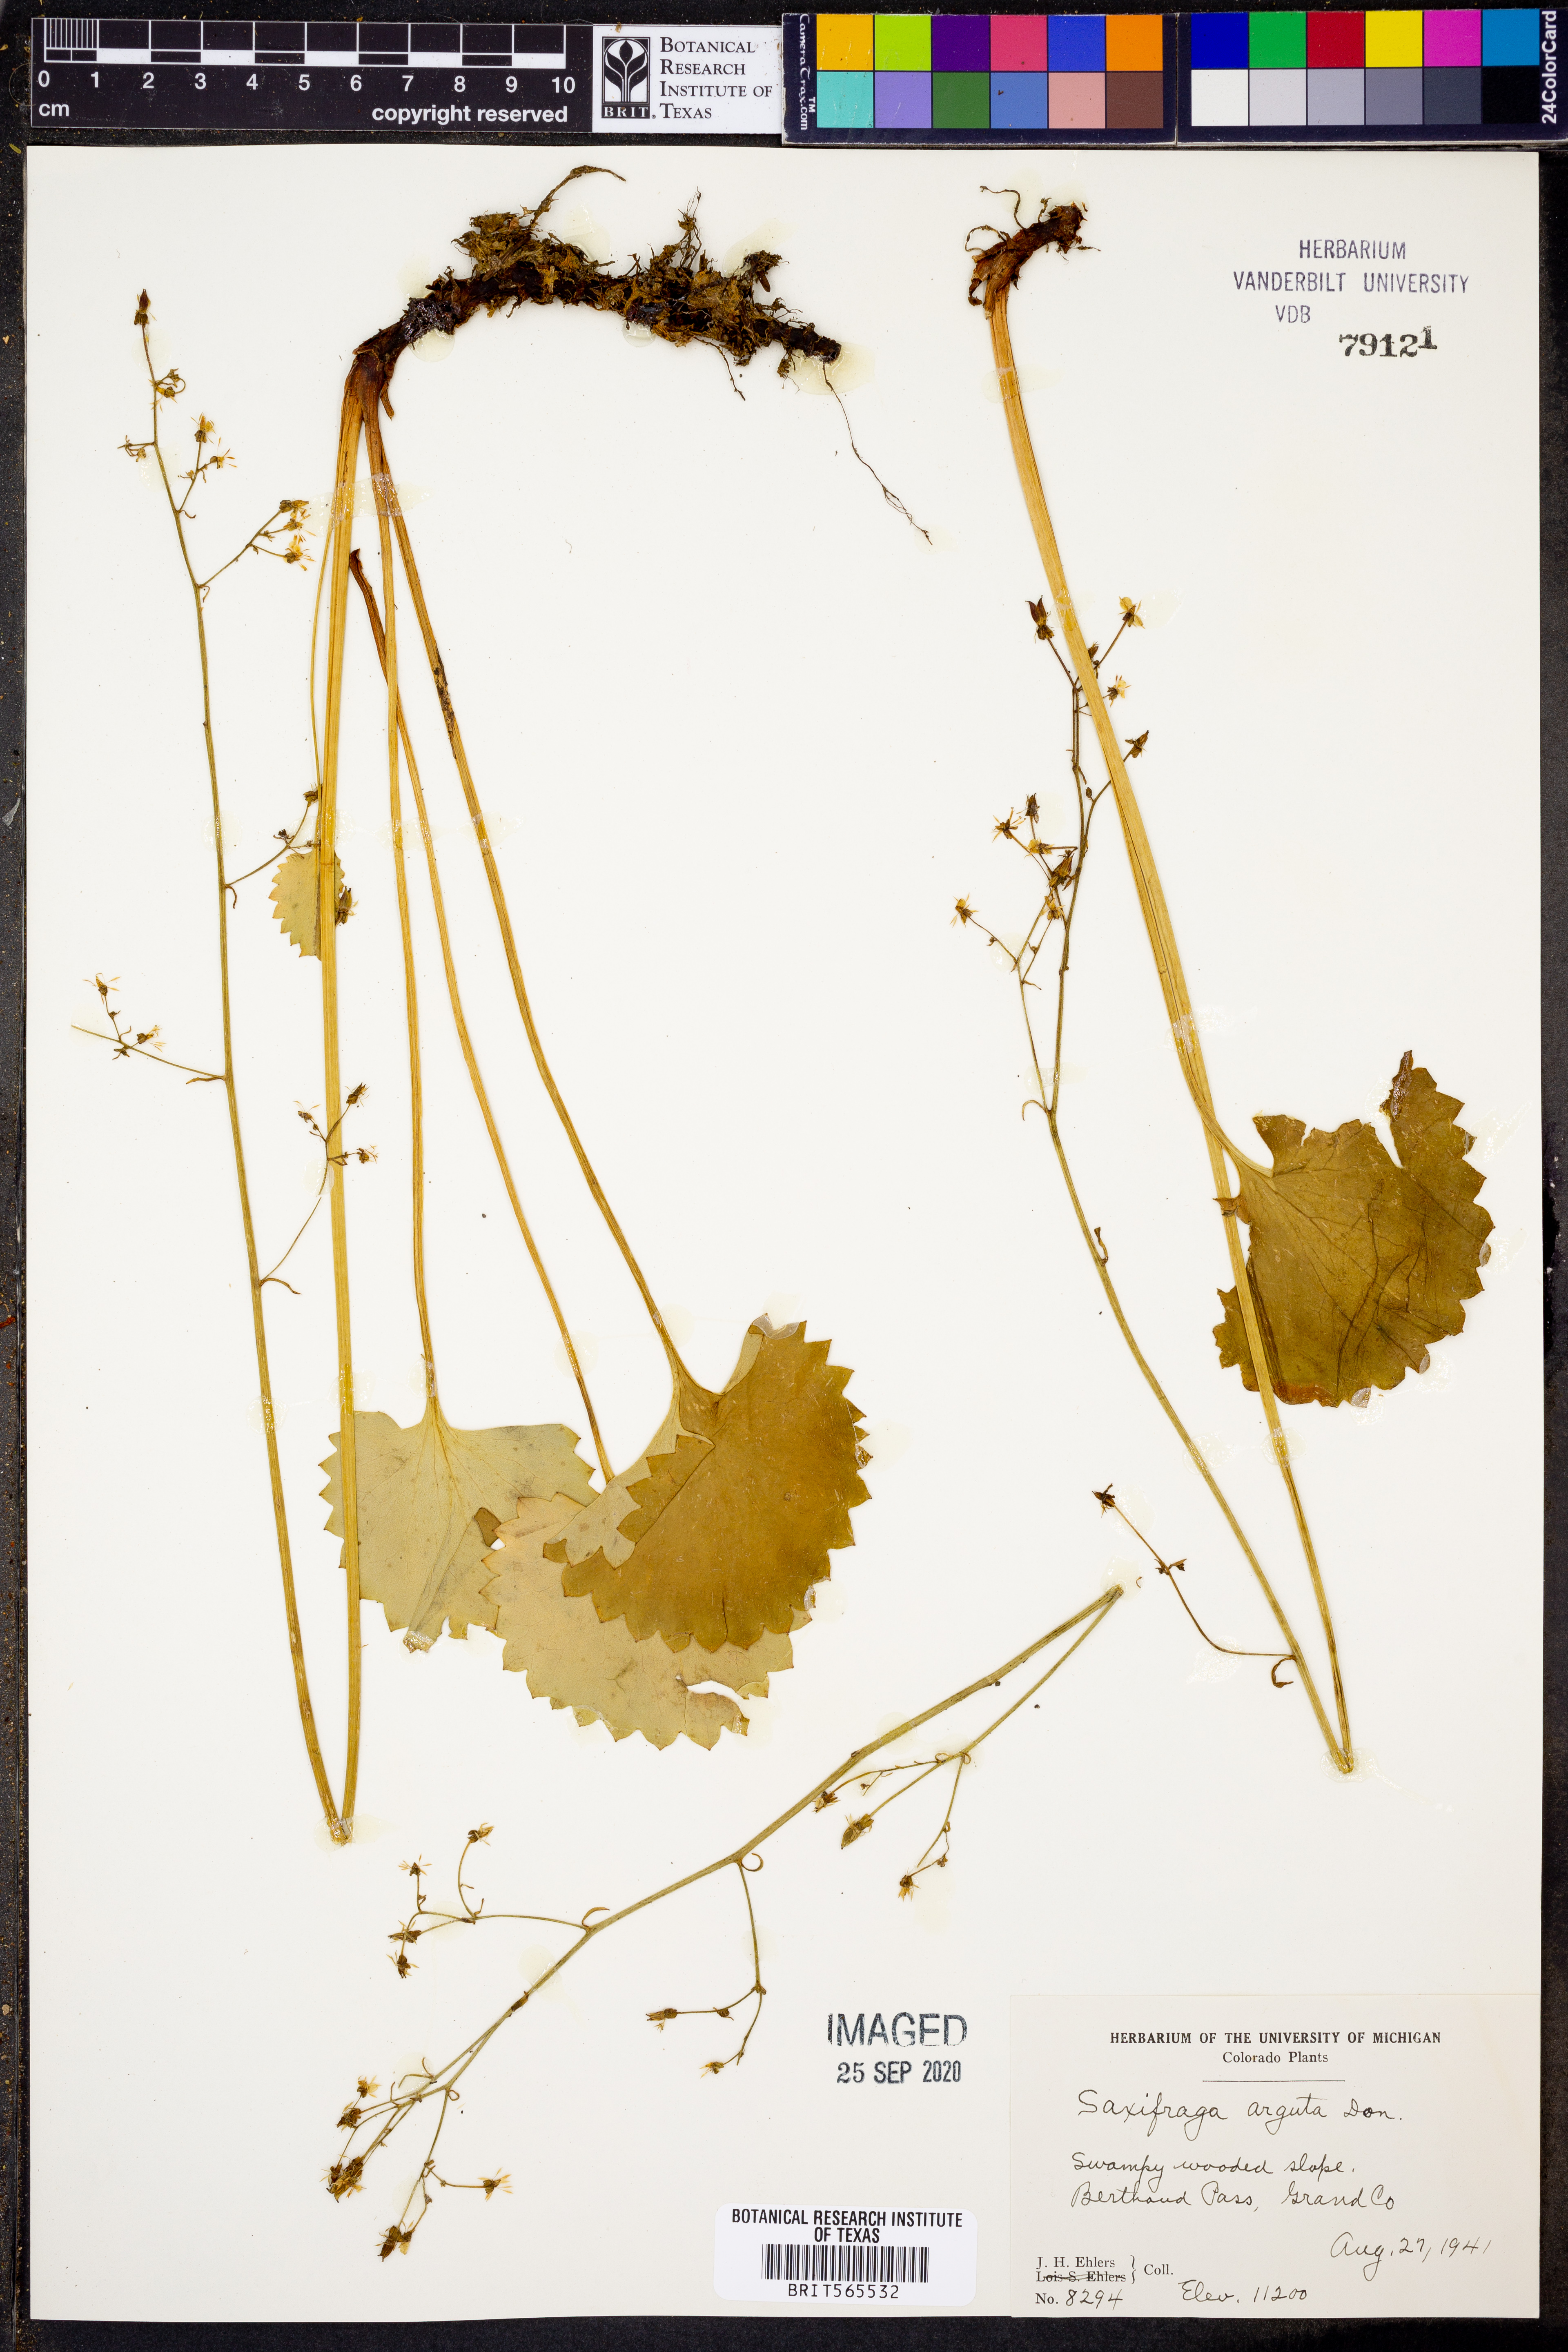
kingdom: Plantae
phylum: Tracheophyta
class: Magnoliopsida
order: Saxifragales
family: Saxifragaceae
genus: Micranthes
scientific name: Micranthes nelsoniana
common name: Nelson's saxifrage
